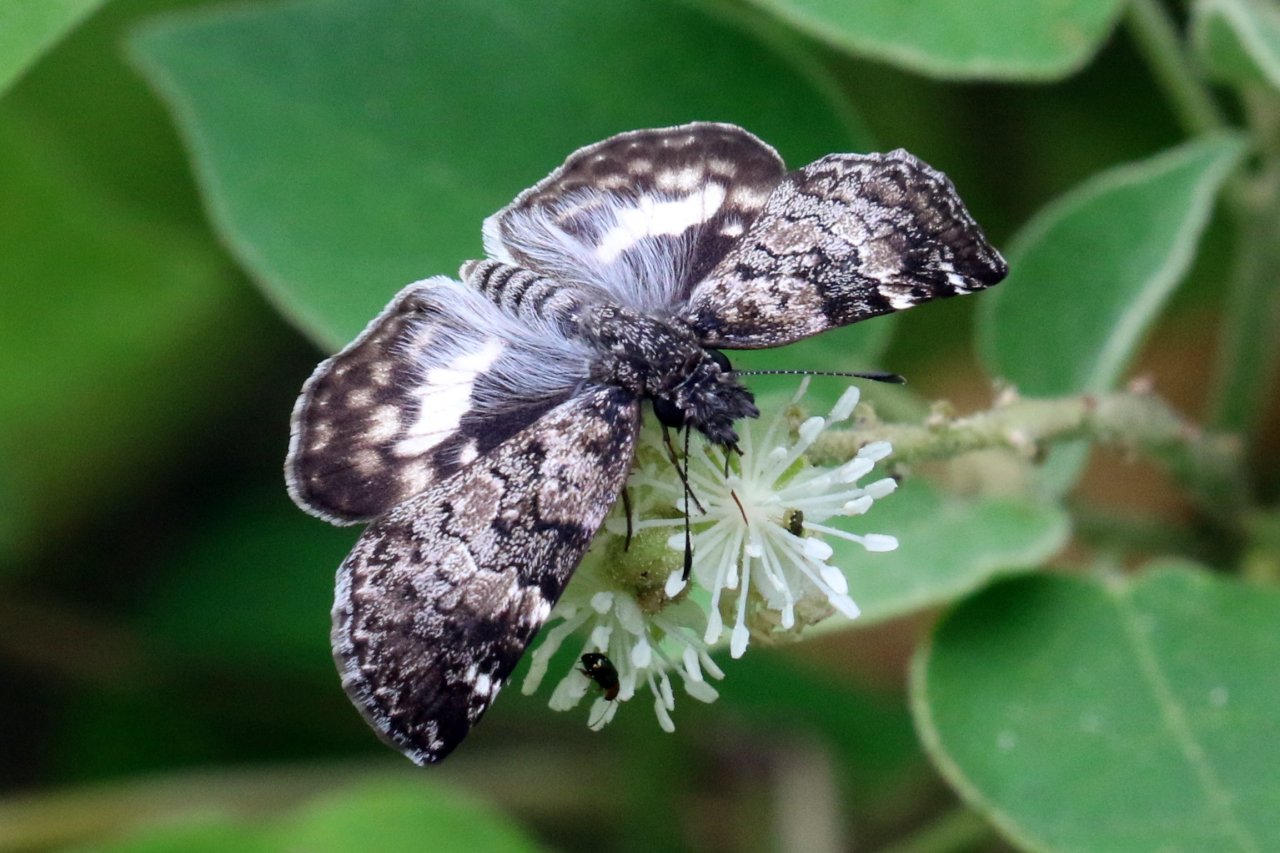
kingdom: Animalia
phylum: Arthropoda
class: Insecta
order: Lepidoptera
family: Hesperiidae
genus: Chiomara
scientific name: Chiomara asychis
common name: White-patched Skipper
